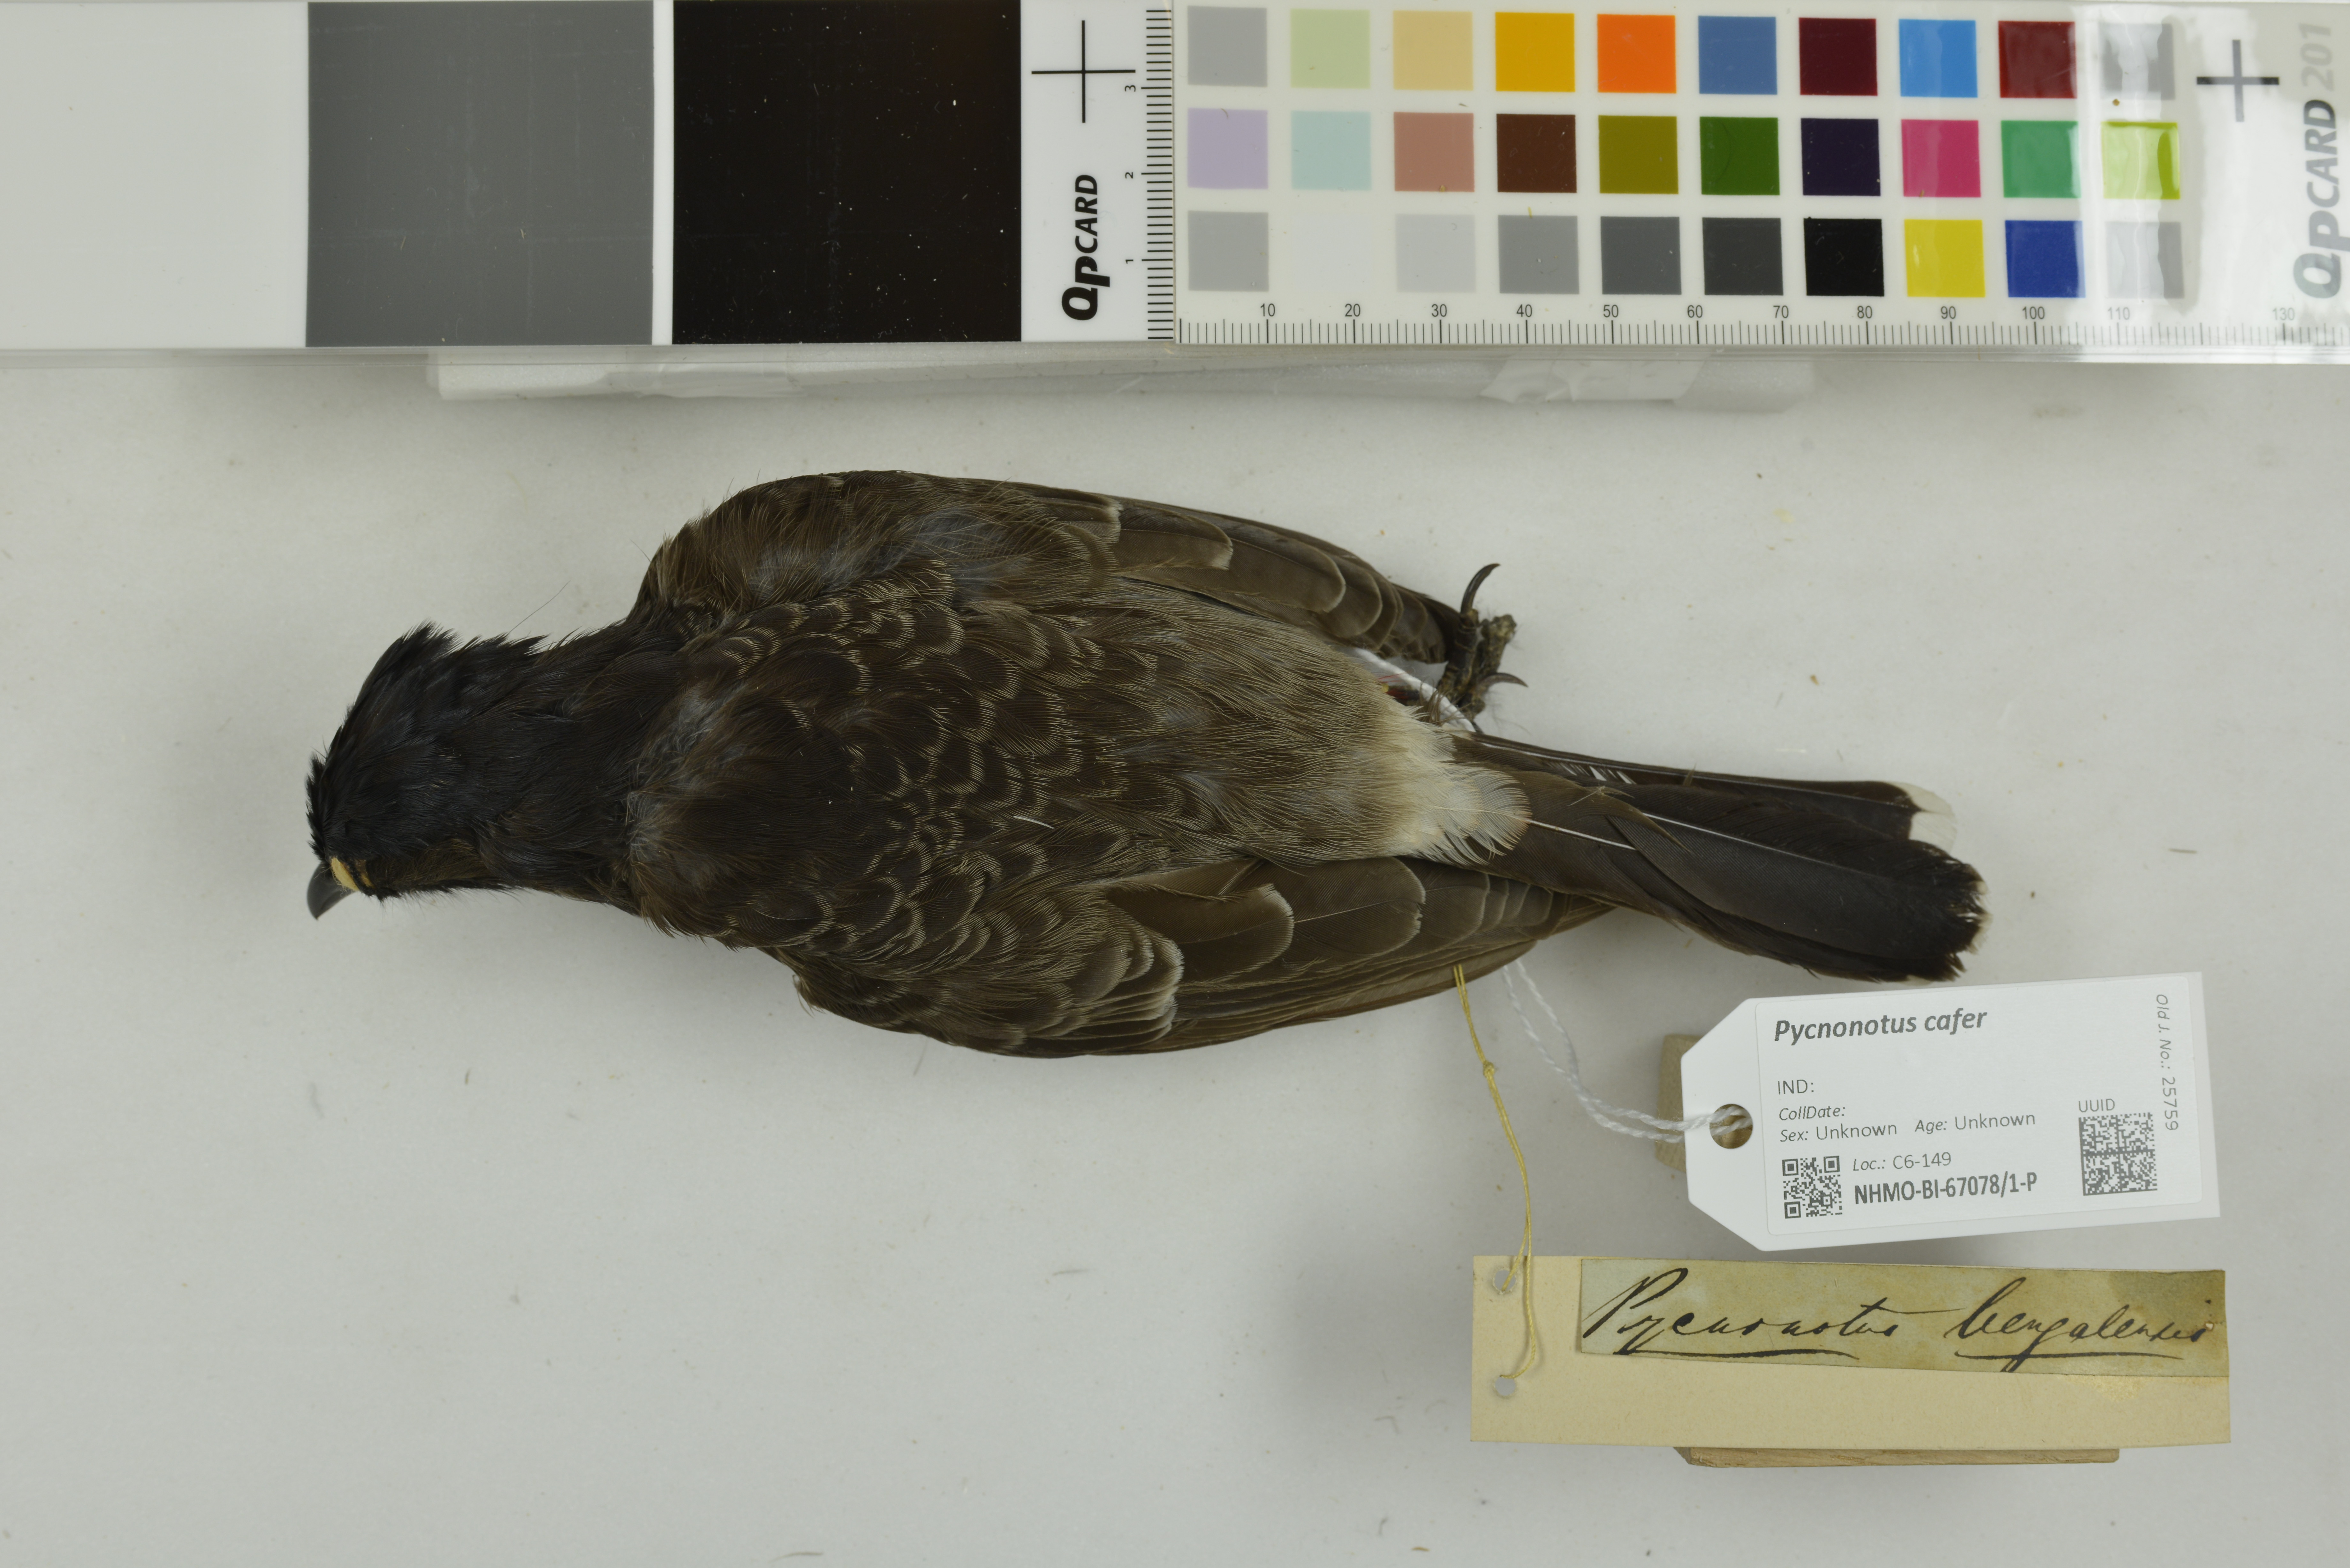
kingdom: Animalia
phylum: Chordata
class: Aves
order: Passeriformes
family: Pycnonotidae
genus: Pycnonotus
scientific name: Pycnonotus cafer
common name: Red-vented bulbul
